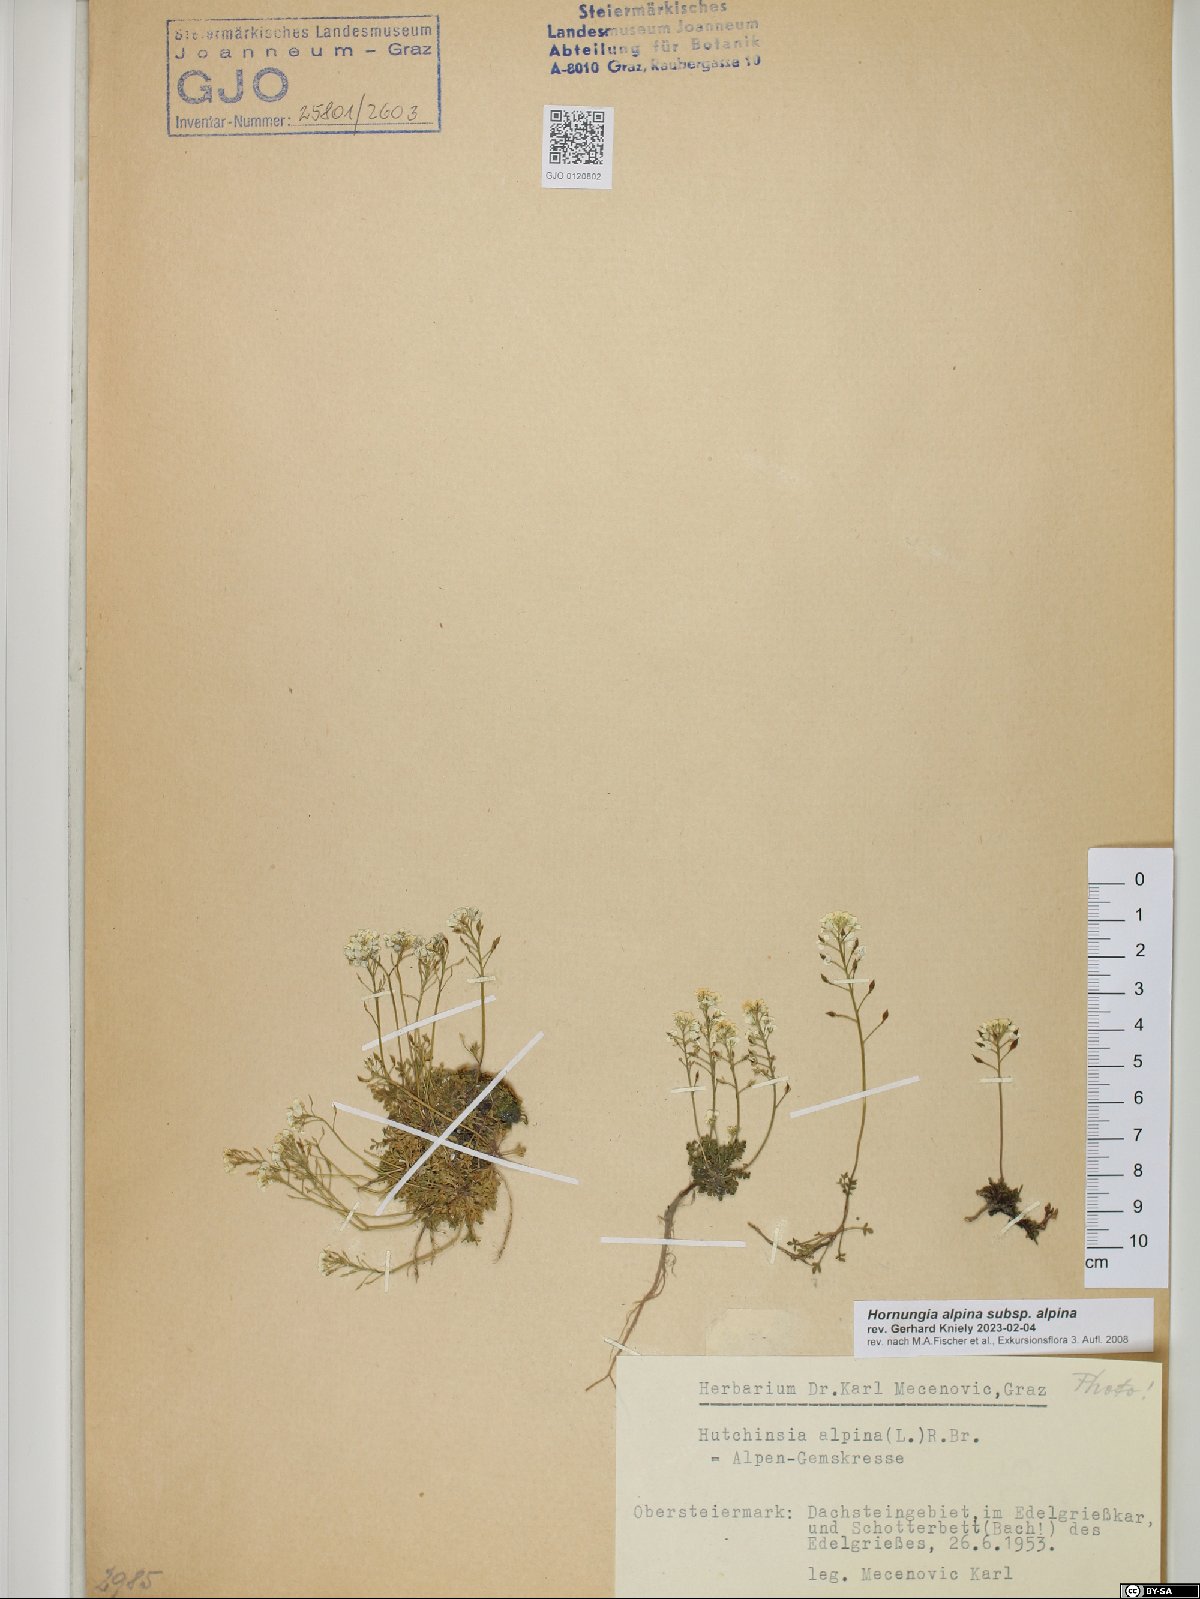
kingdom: Plantae
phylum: Tracheophyta
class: Magnoliopsida
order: Brassicales
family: Brassicaceae
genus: Hornungia
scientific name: Hornungia alpina
